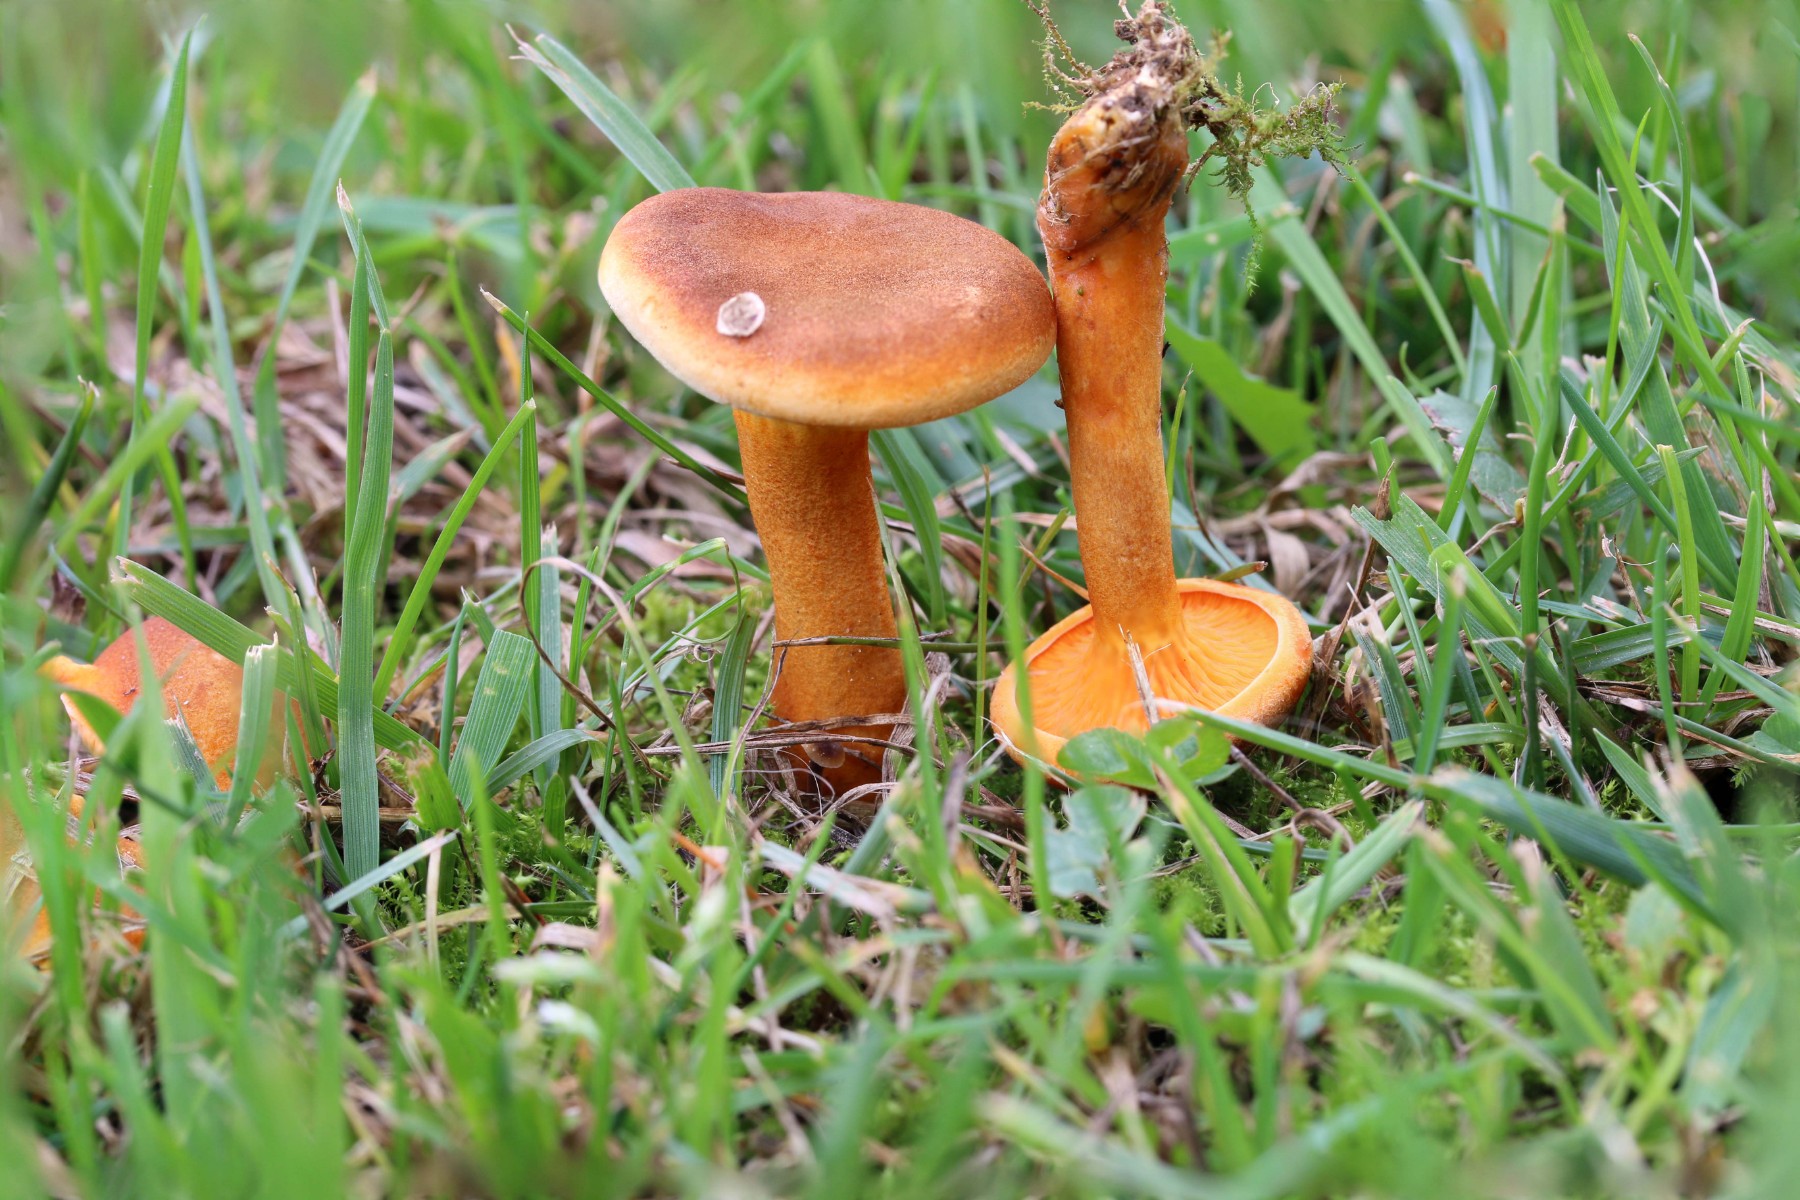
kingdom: Fungi
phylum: Basidiomycota
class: Agaricomycetes
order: Boletales
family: Hygrophoropsidaceae
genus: Hygrophoropsis
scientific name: Hygrophoropsis rufa
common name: brunfiltet orangekantarel
